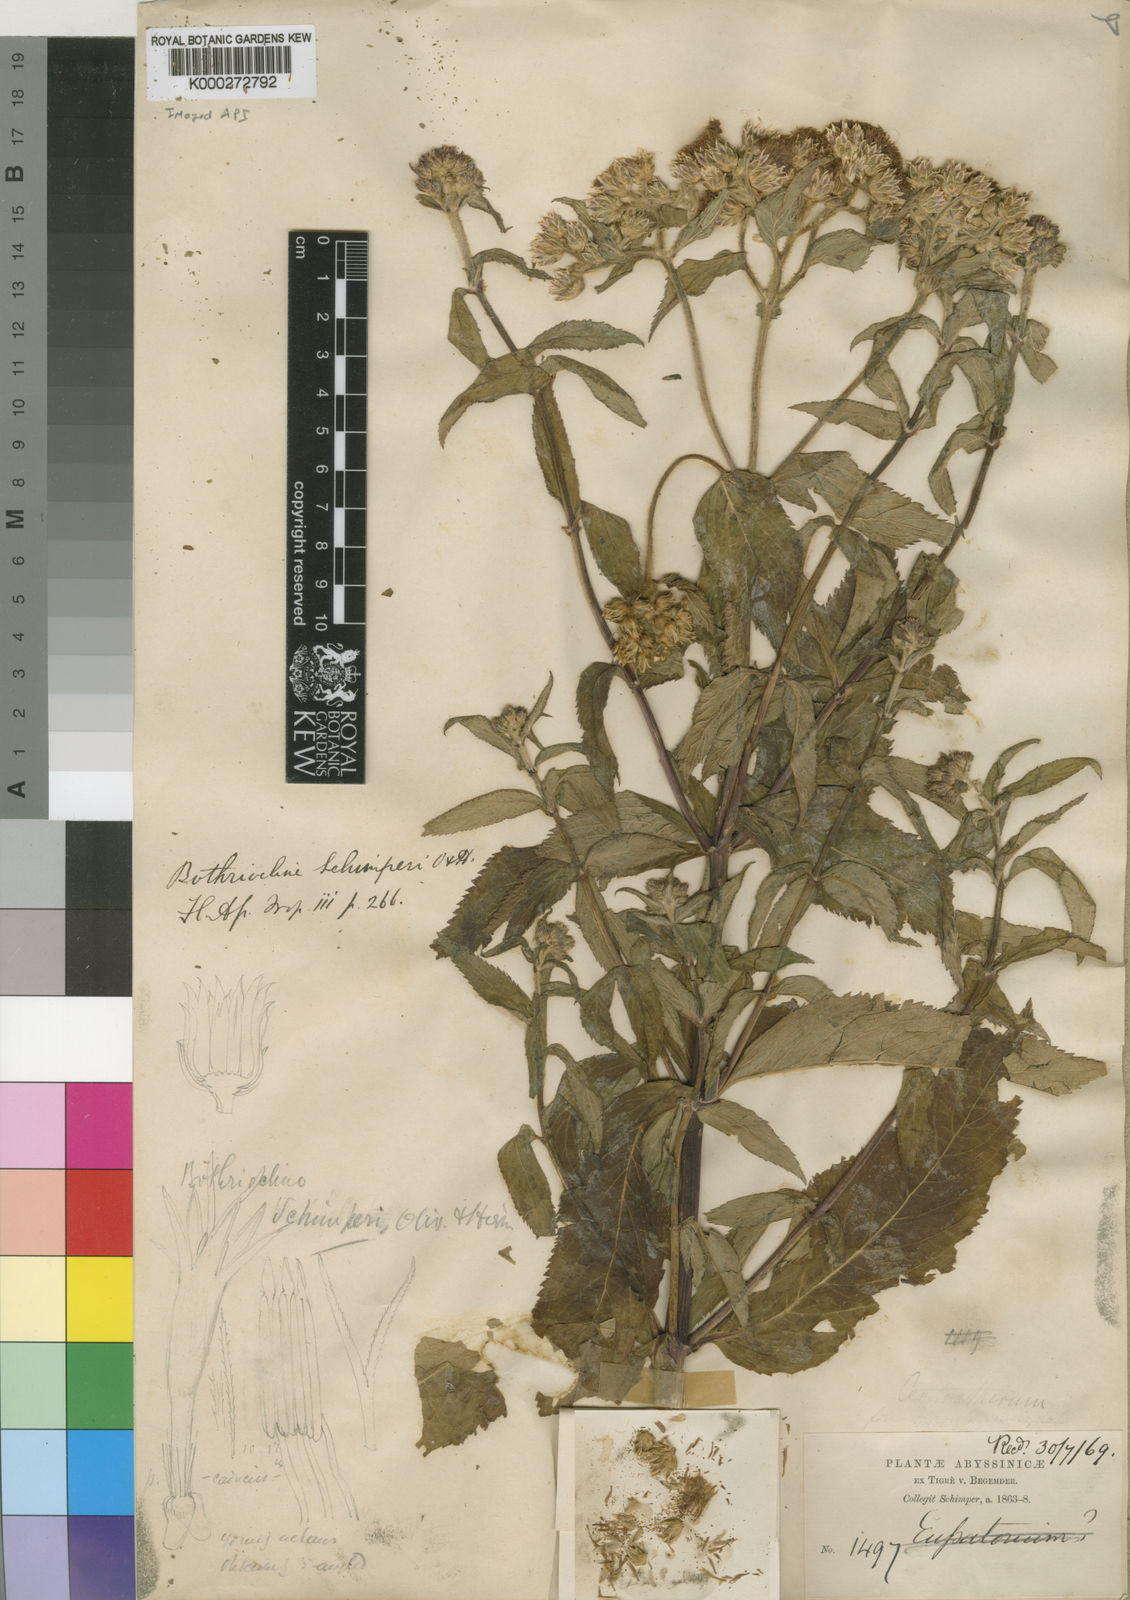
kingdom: Plantae
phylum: Tracheophyta
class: Magnoliopsida
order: Asterales
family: Asteraceae
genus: Bothriocline
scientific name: Bothriocline schimperi
